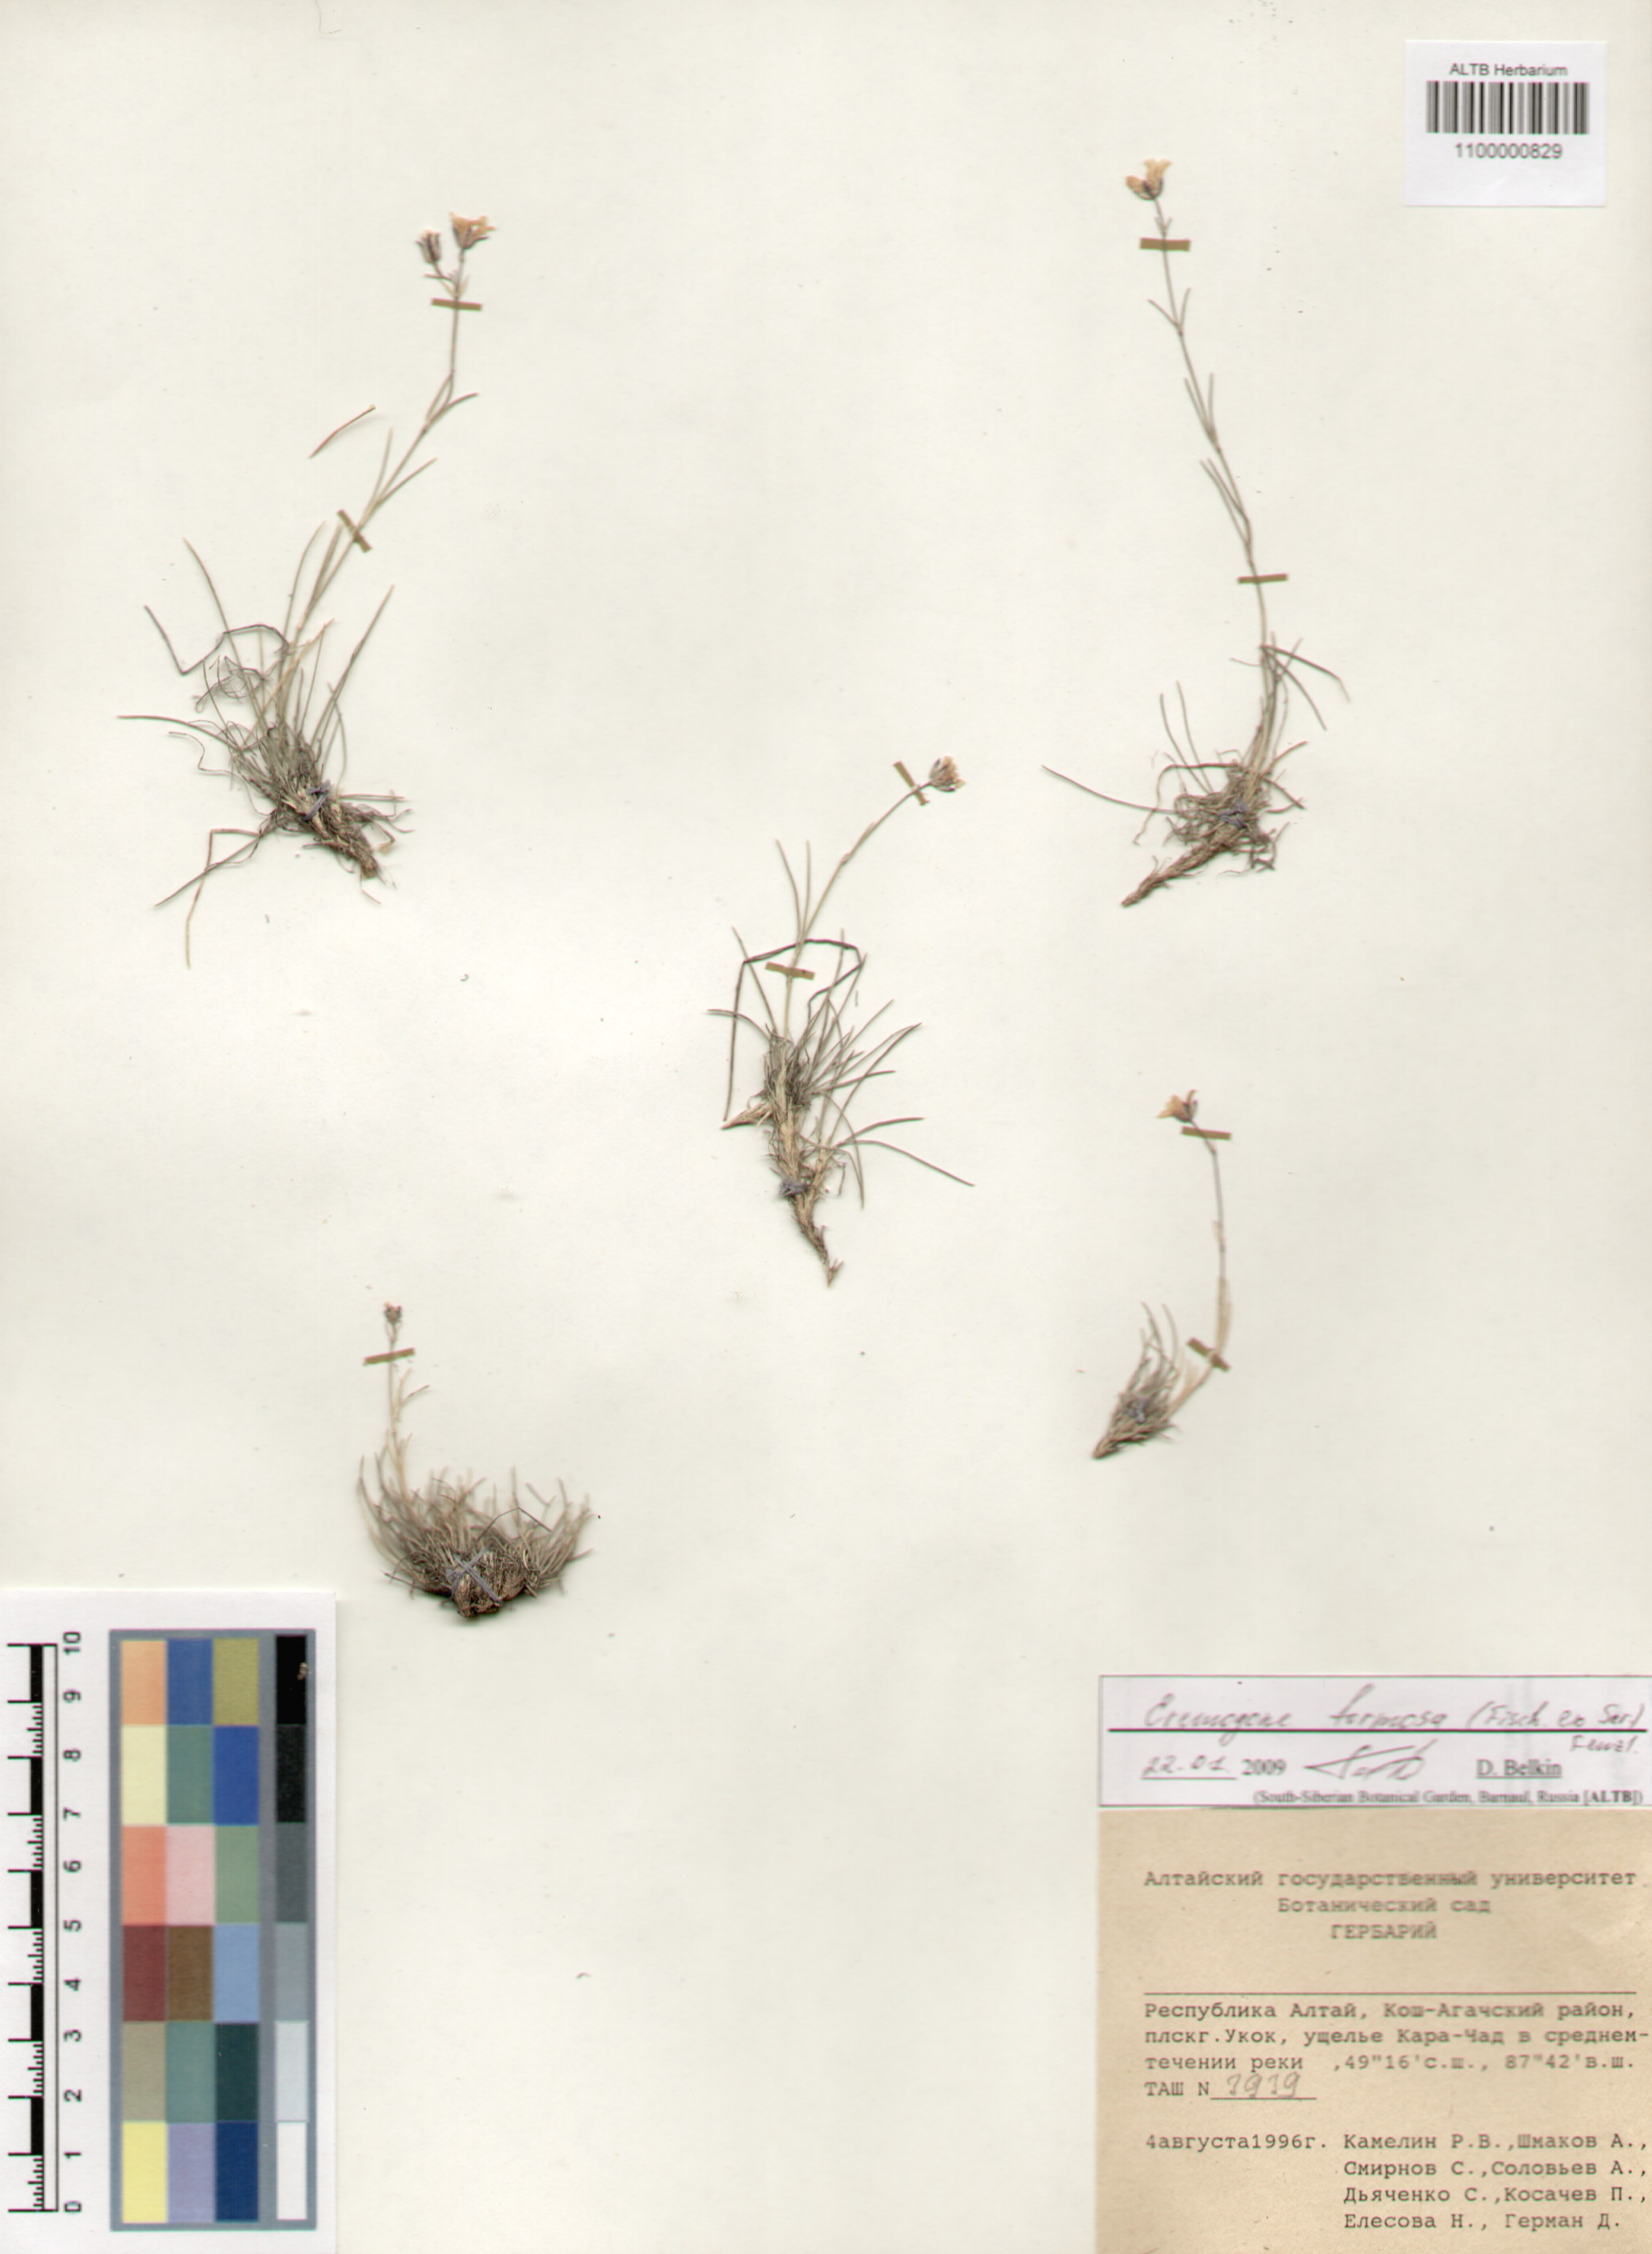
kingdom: Plantae
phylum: Tracheophyta
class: Magnoliopsida
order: Caryophyllales
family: Caryophyllaceae
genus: Eremogone
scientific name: Eremogone formosa
